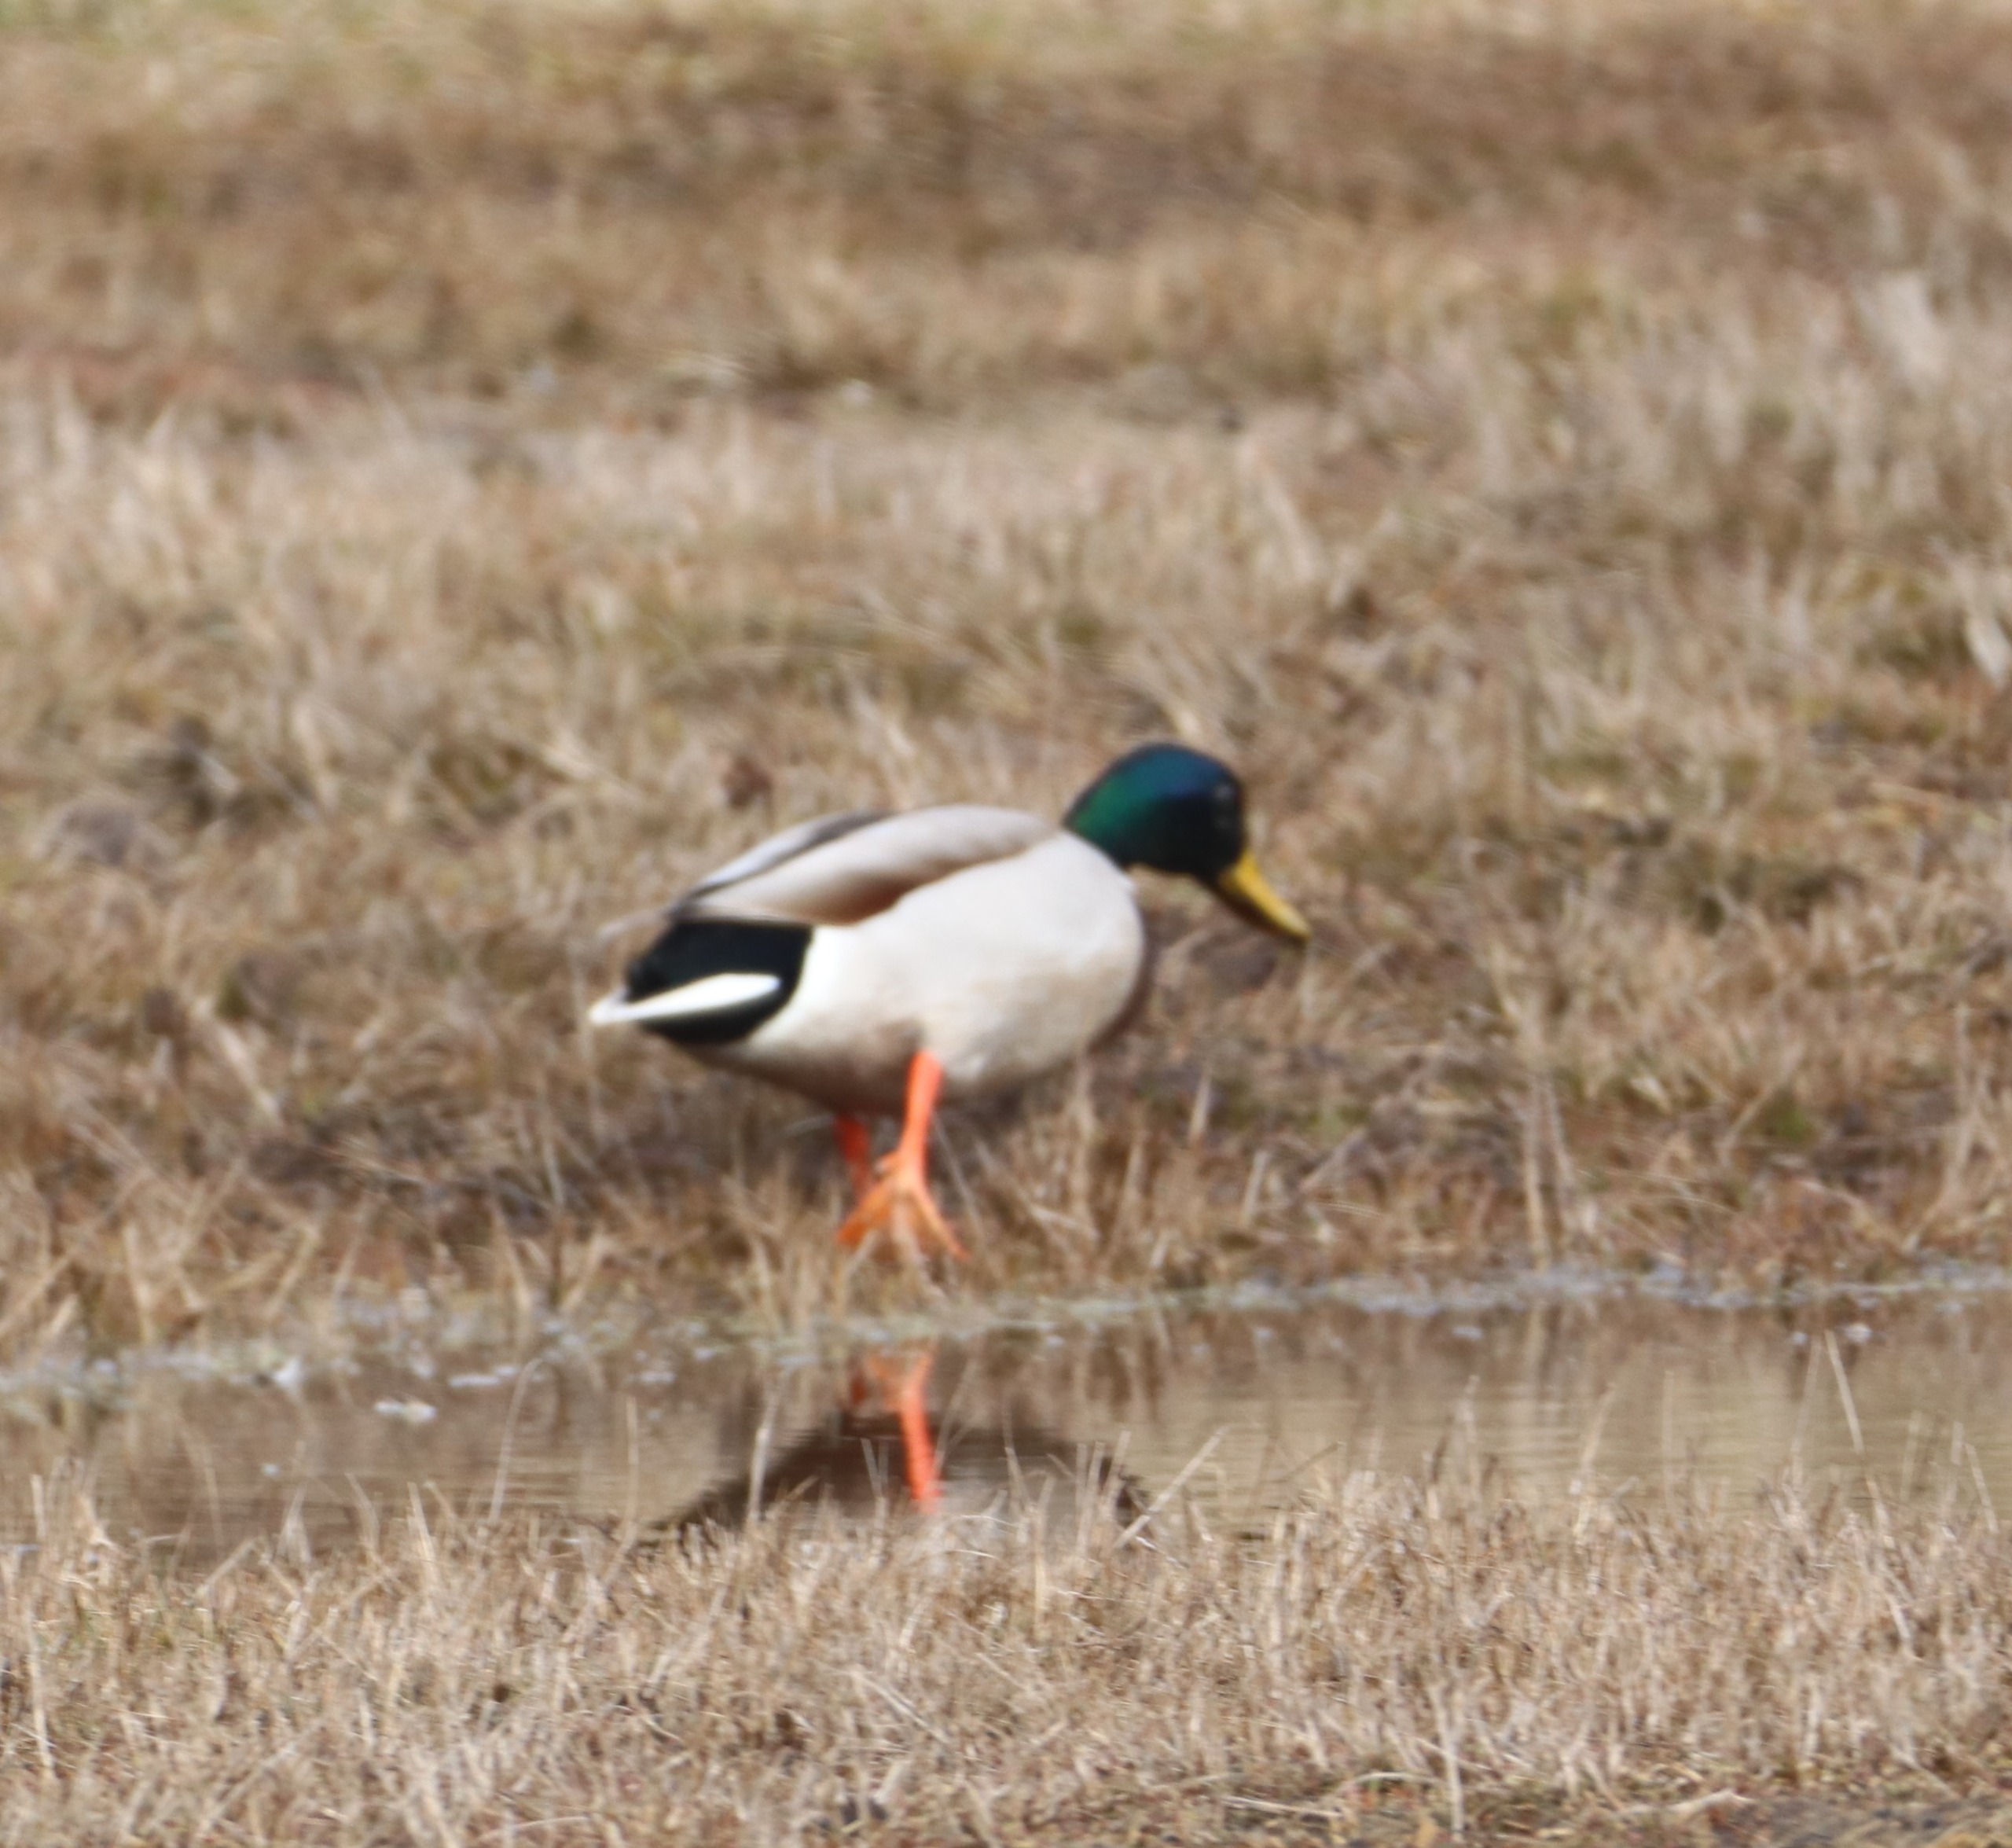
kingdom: Animalia
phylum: Chordata
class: Aves
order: Anseriformes
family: Anatidae
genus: Anas
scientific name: Anas platyrhynchos
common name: Gråand
